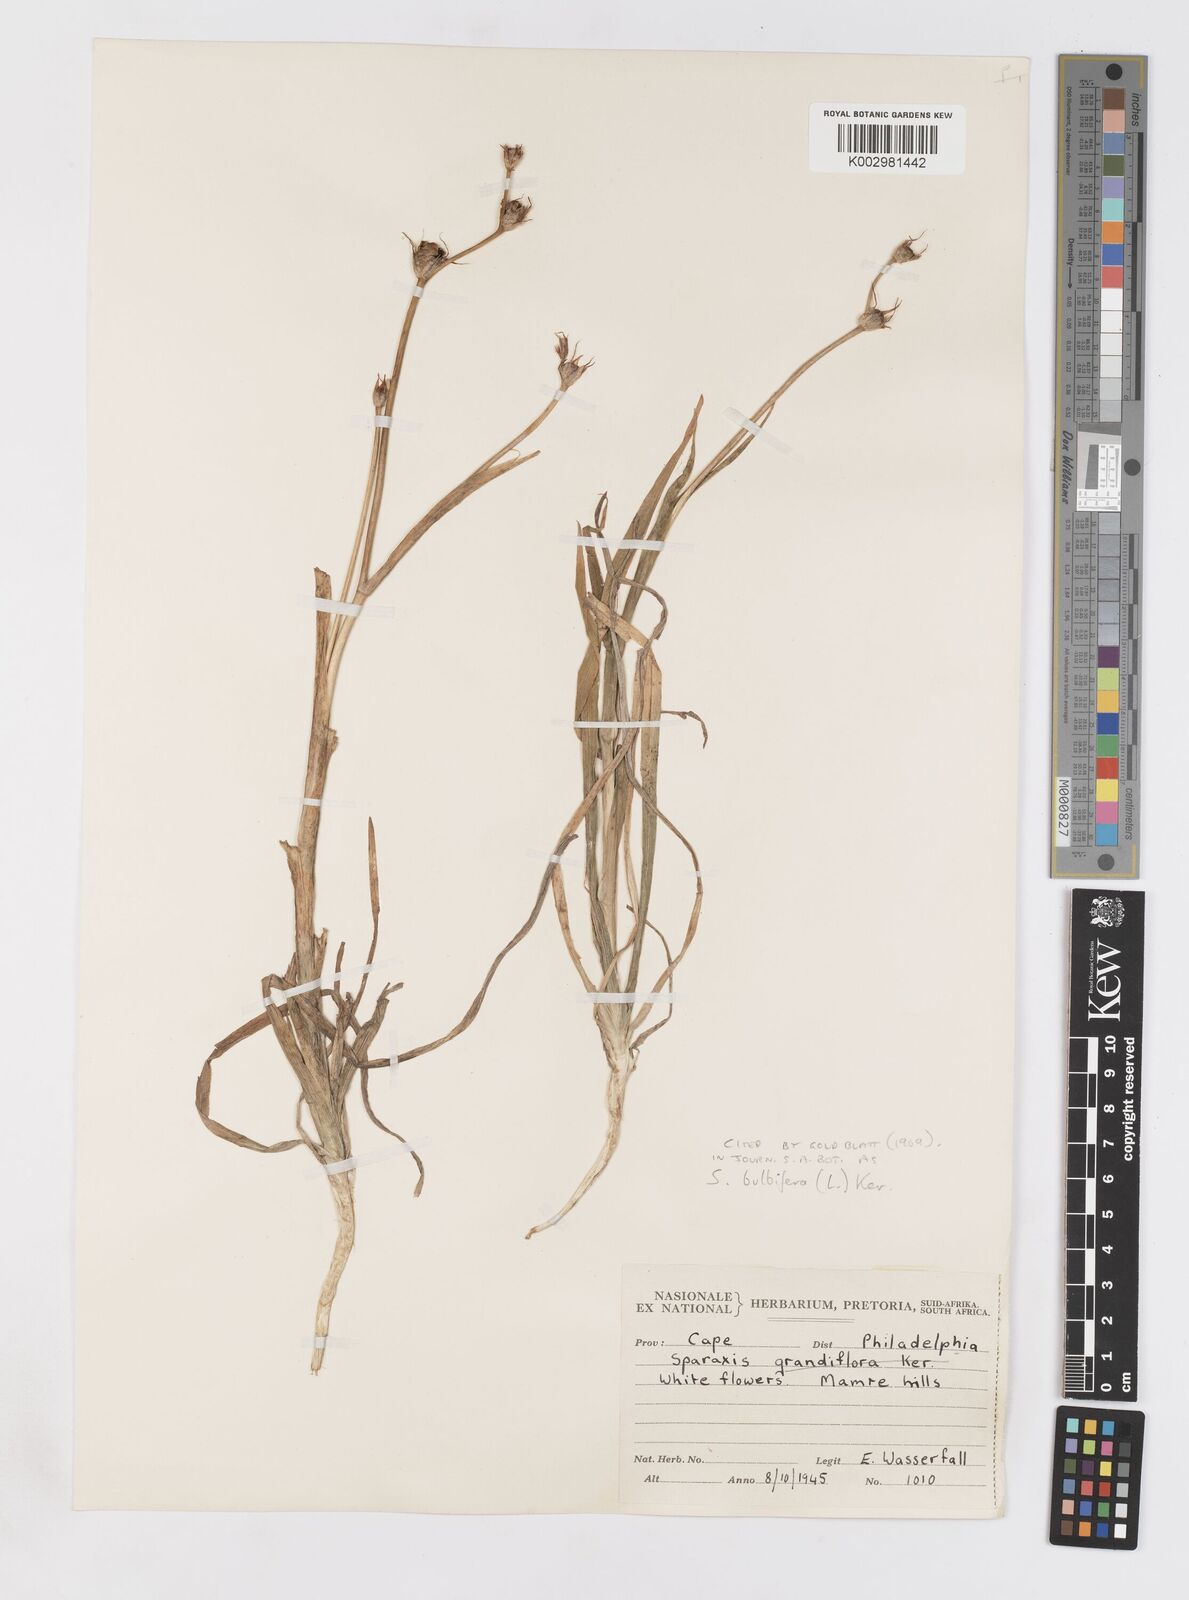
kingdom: Plantae
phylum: Tracheophyta
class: Liliopsida
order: Asparagales
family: Iridaceae
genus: Sparaxis
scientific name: Sparaxis bulbifera
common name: Harlequin-flower
